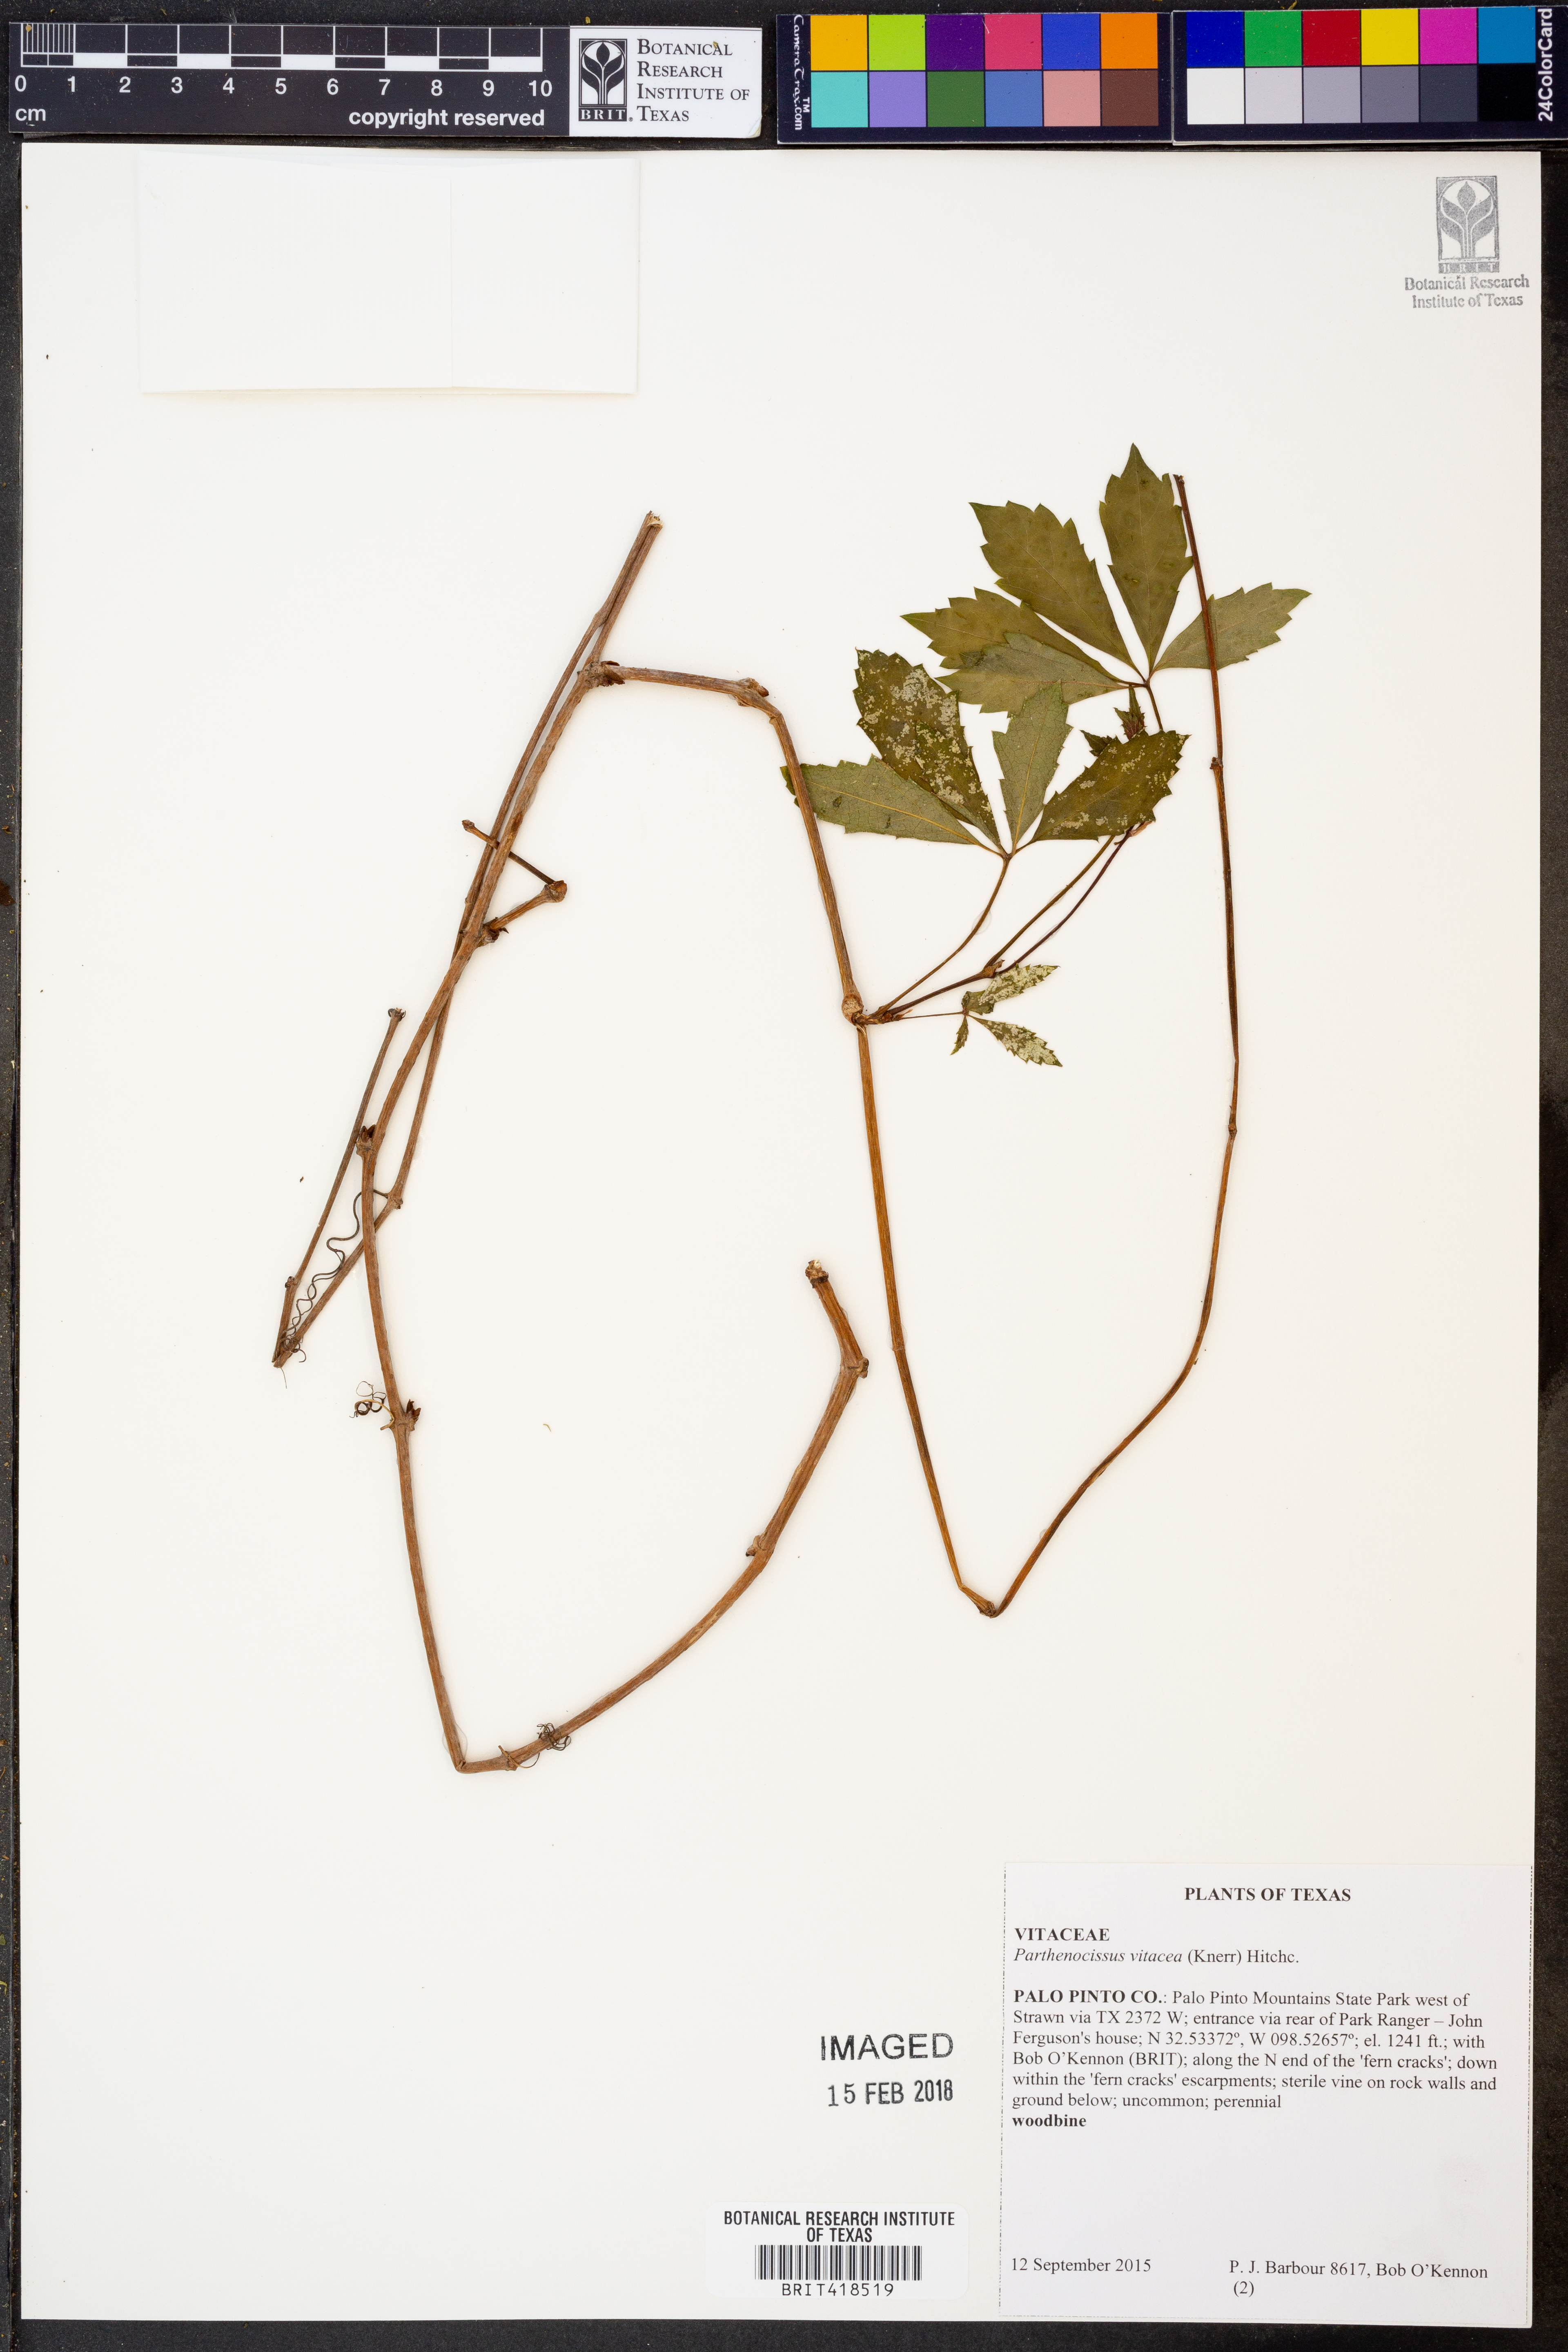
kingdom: Plantae
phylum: Tracheophyta
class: Magnoliopsida
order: Vitales
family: Vitaceae
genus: Parthenocissus
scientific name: Parthenocissus inserta
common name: False virginia-creeper
